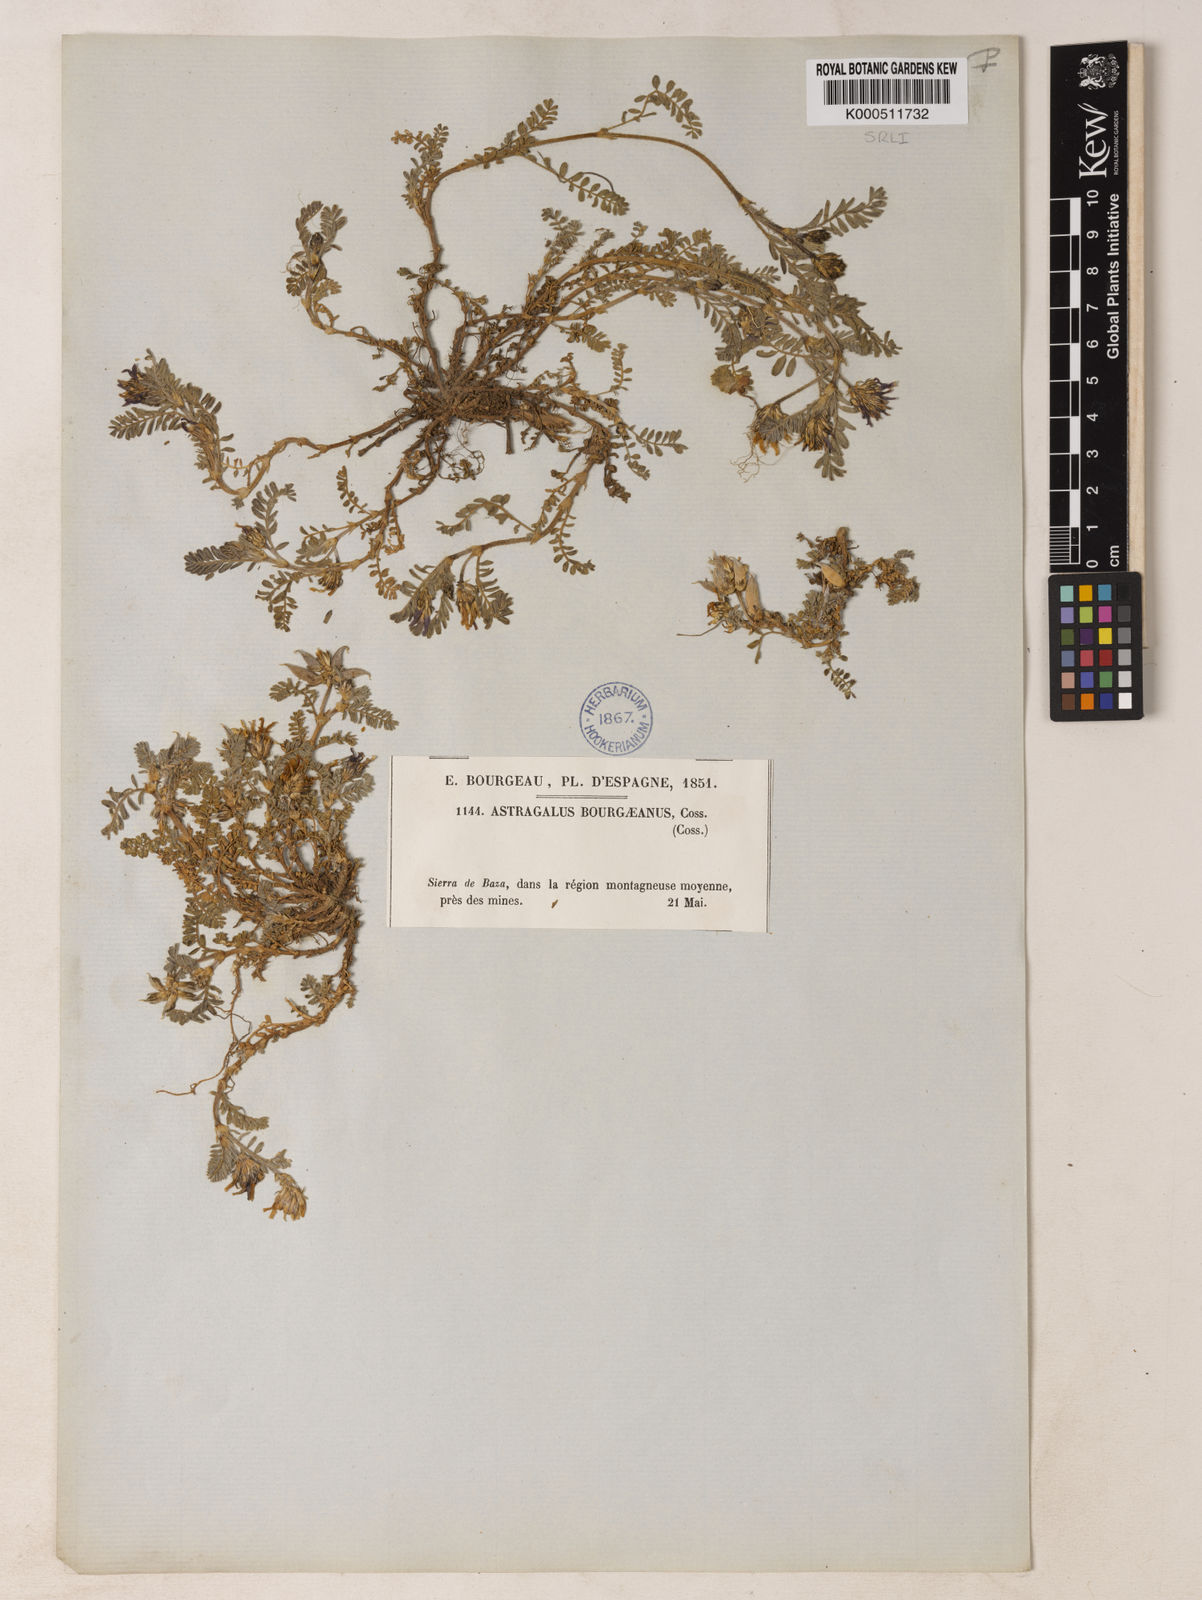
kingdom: Plantae
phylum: Tracheophyta
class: Magnoliopsida
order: Fabales
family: Fabaceae
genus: Astragalus
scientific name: Astragalus bourgaeanus
